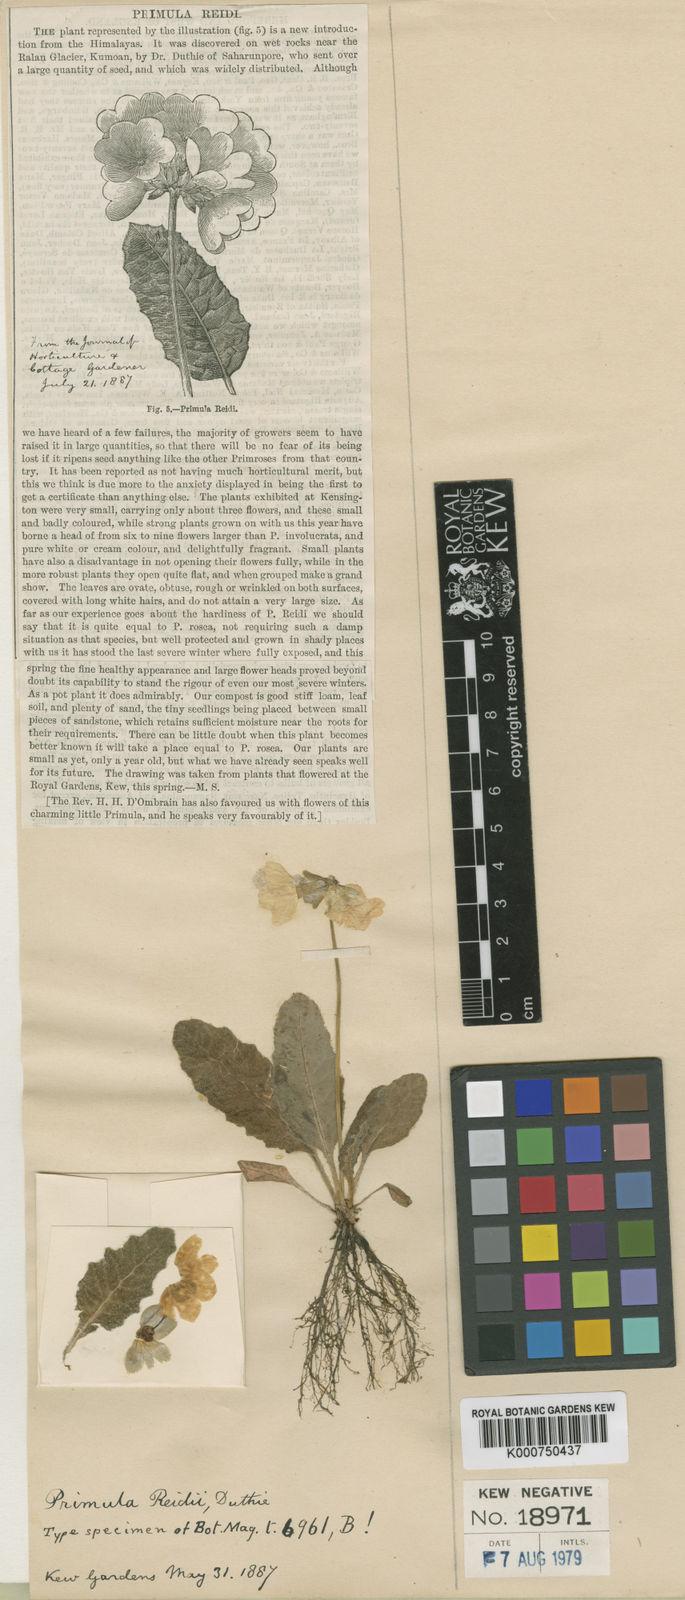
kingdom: Plantae
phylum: Tracheophyta
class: Magnoliopsida
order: Ericales
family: Primulaceae
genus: Primula
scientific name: Primula reidii
